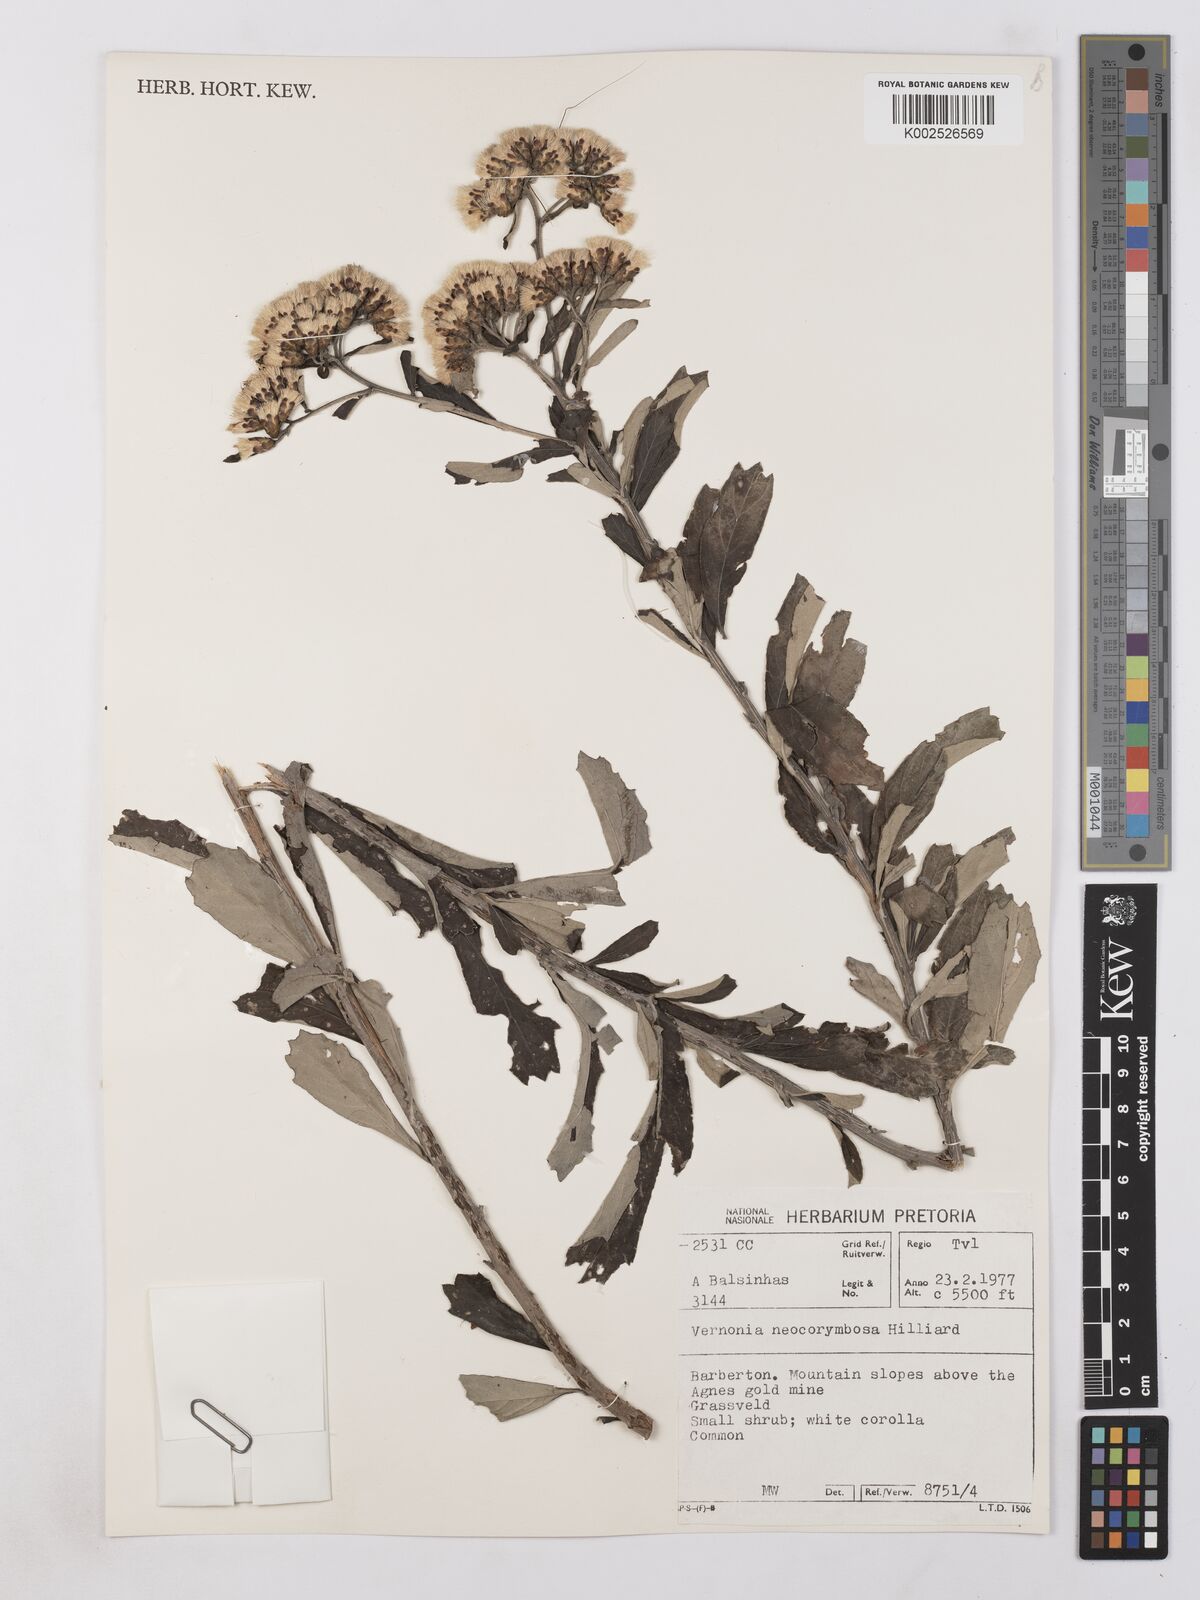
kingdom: Plantae
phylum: Tracheophyta
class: Magnoliopsida
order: Asterales
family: Asteraceae
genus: Gymnanthemum
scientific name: Gymnanthemum corymbosum
